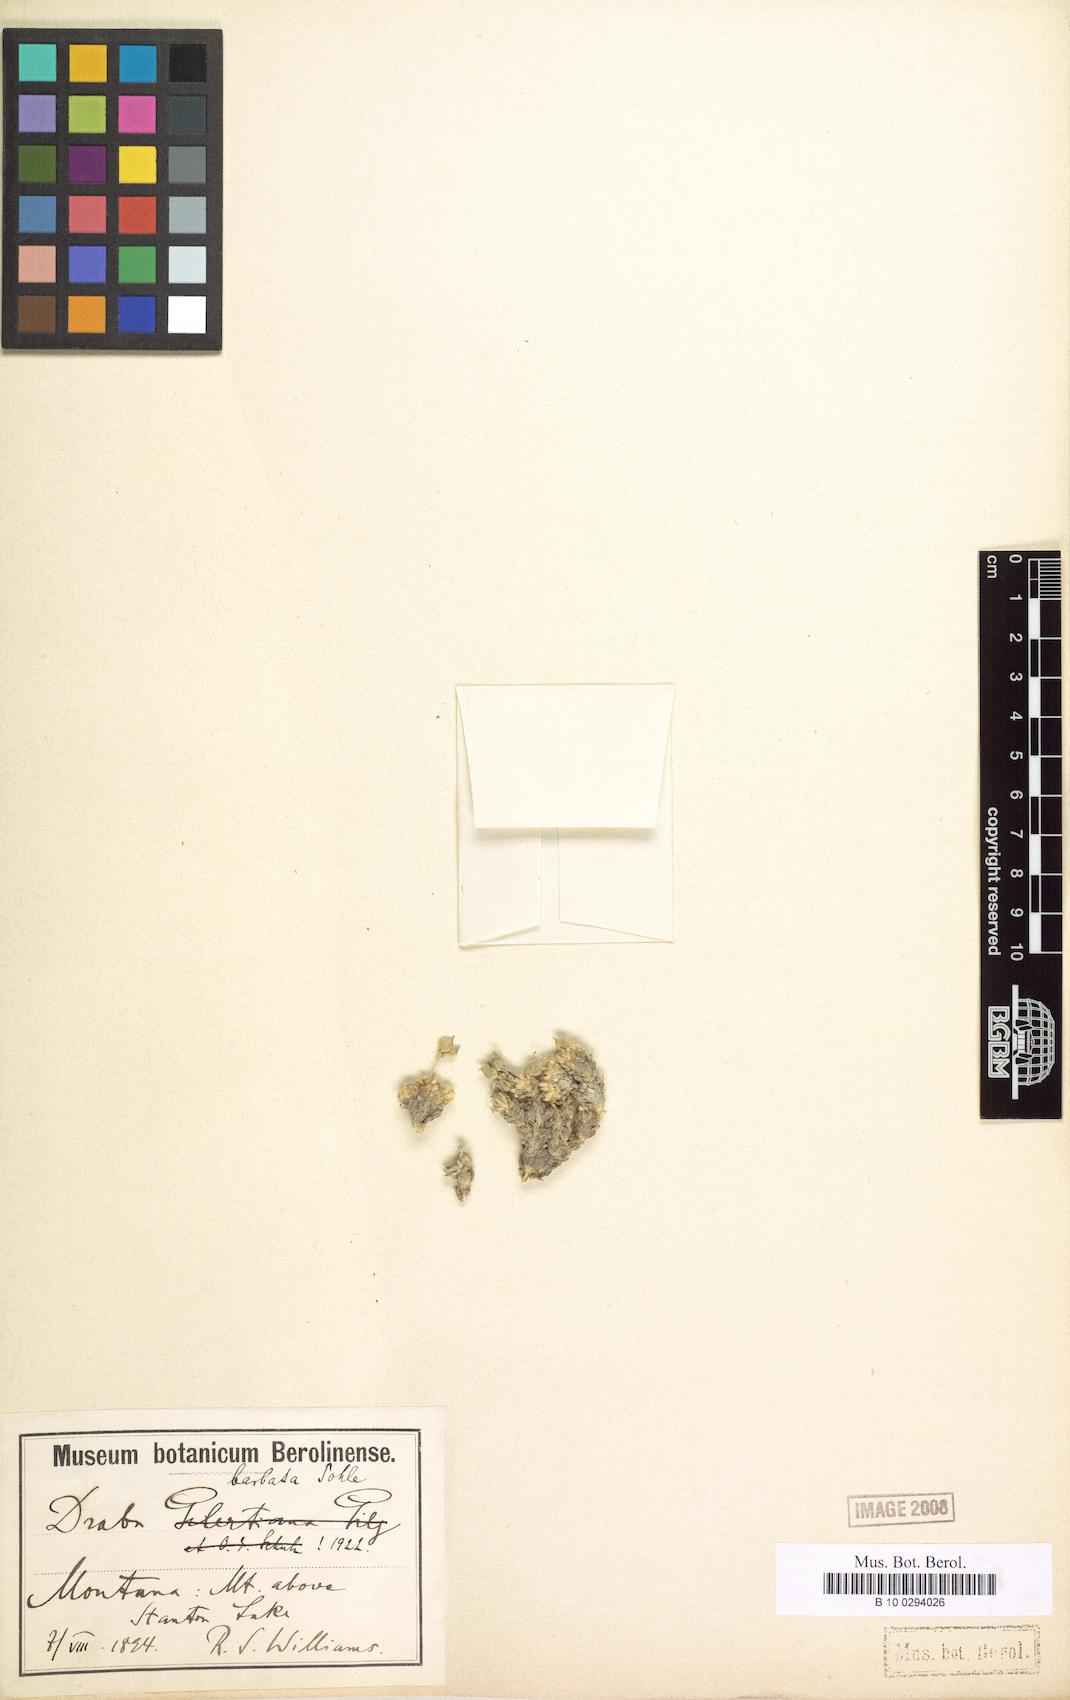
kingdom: Plantae
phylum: Tracheophyta
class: Magnoliopsida
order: Brassicales
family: Brassicaceae
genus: Draba
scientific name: Draba corymbosa
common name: Cushion whitlow-grass
